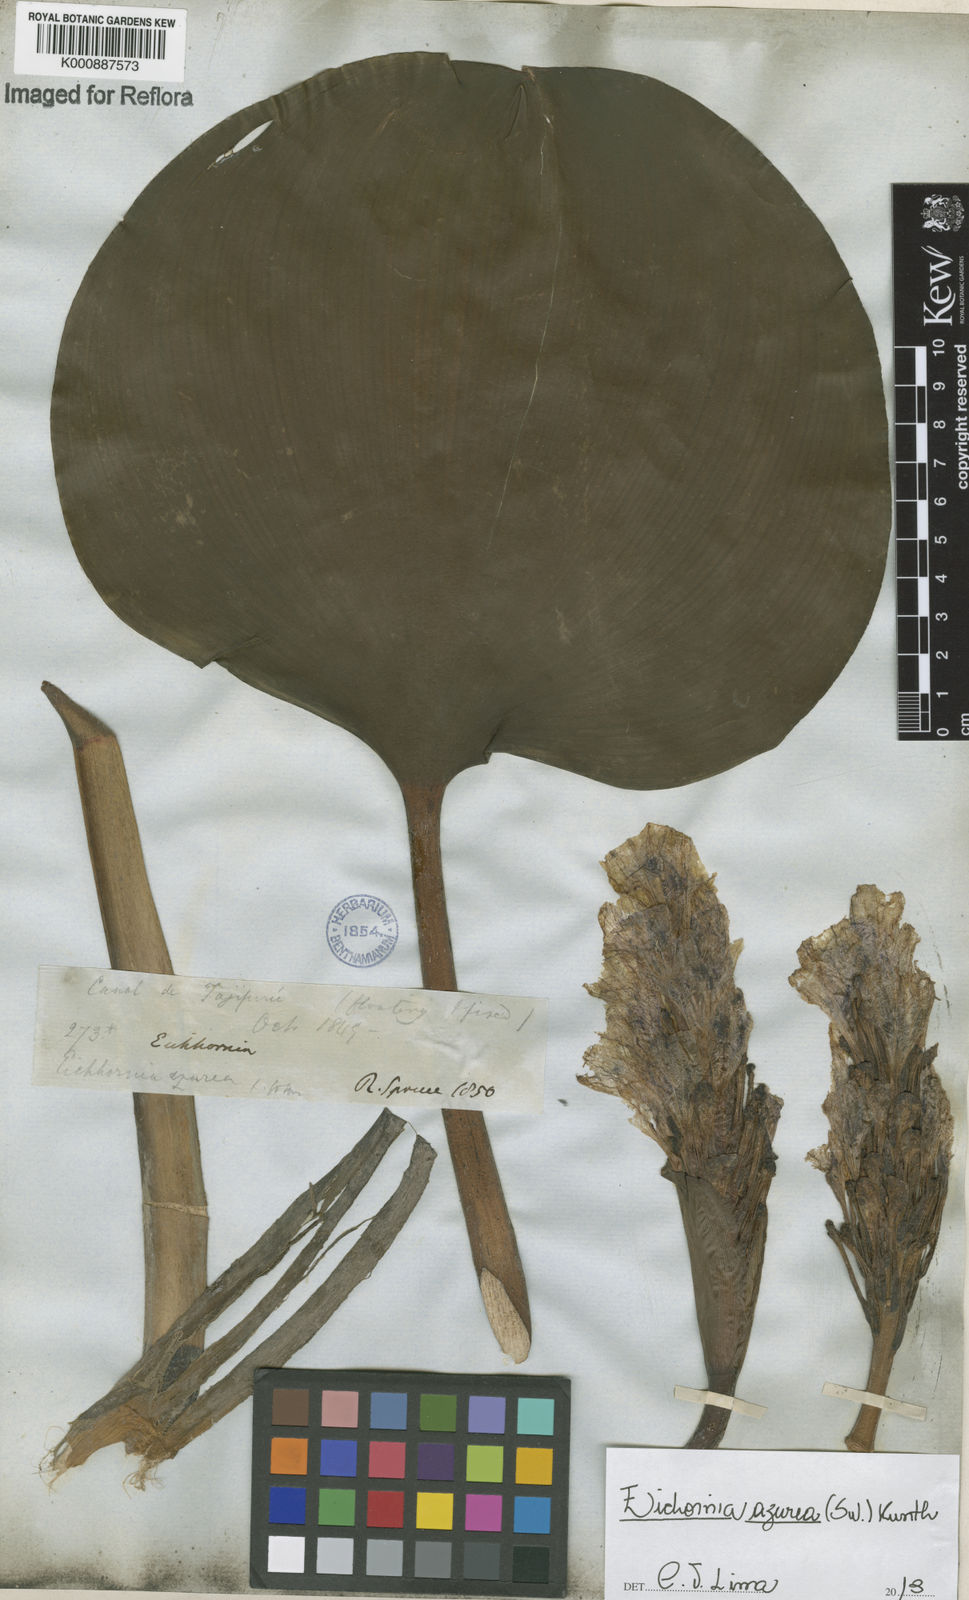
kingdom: Plantae
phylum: Tracheophyta
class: Liliopsida
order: Commelinales
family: Pontederiaceae
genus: Pontederia
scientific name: Pontederia azurea
